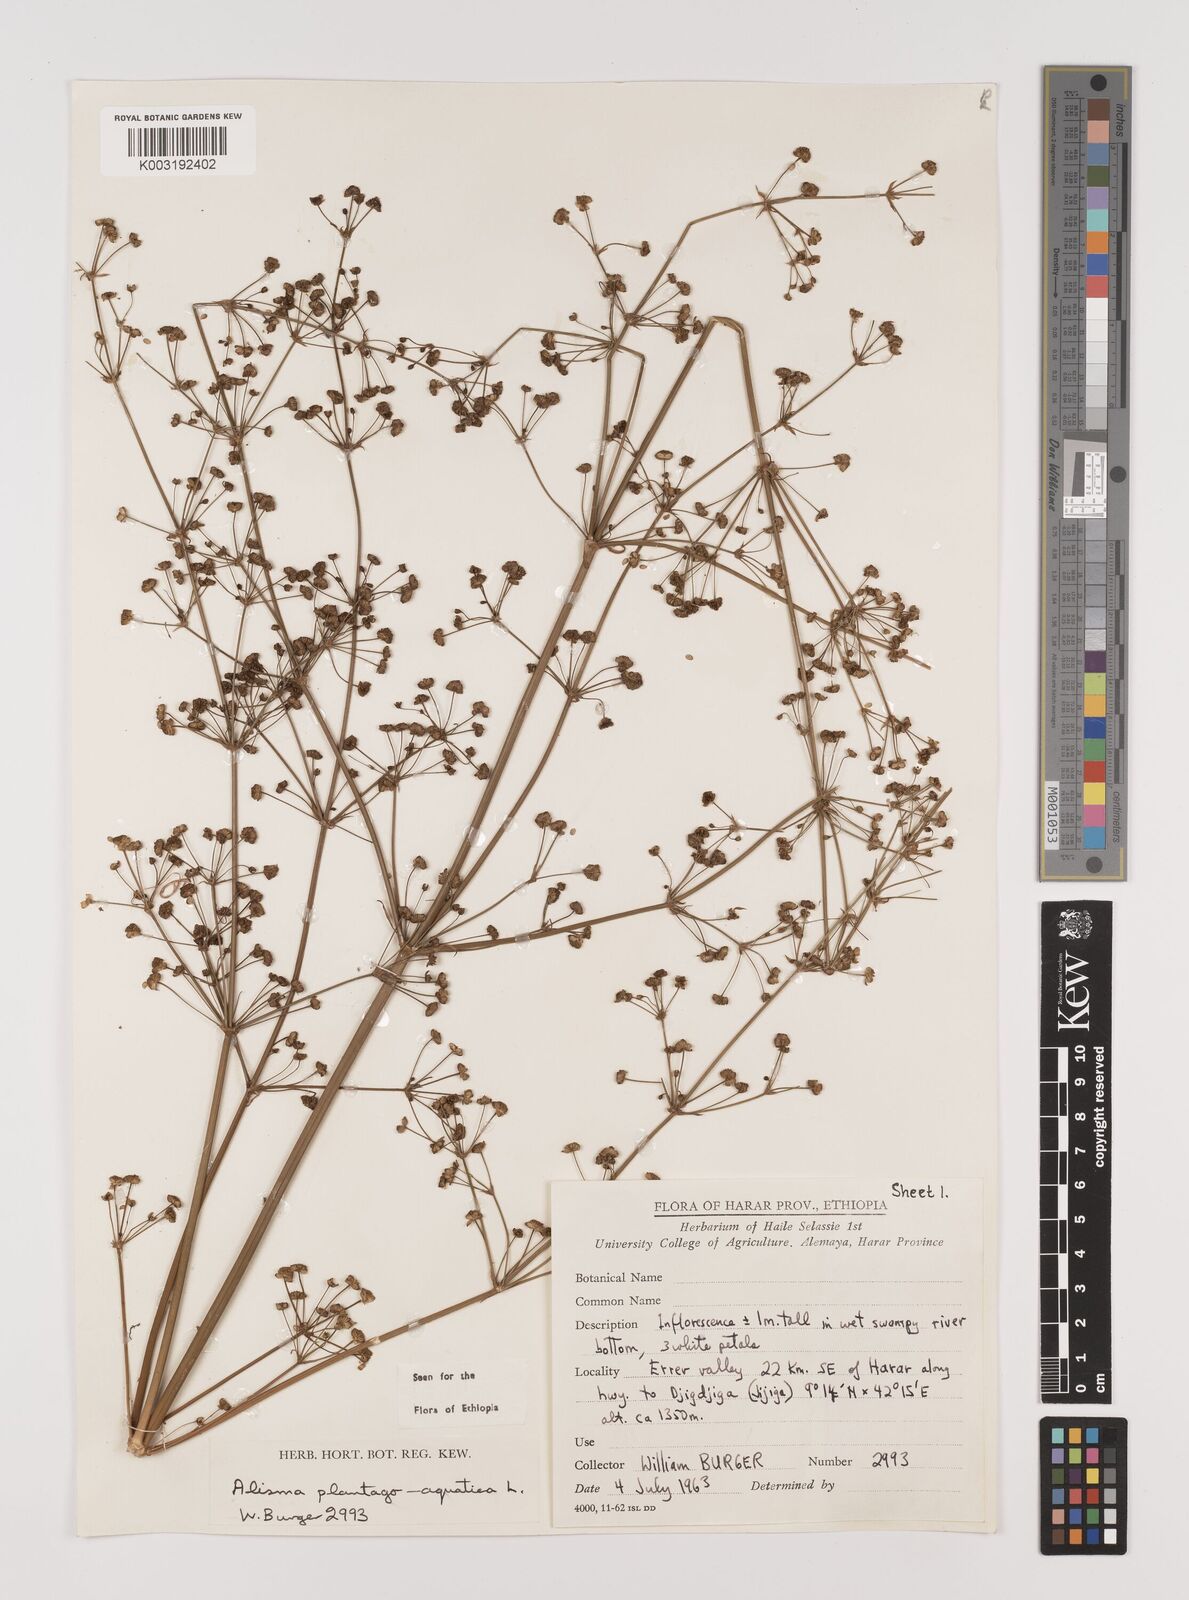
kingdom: Plantae
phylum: Tracheophyta
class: Liliopsida
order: Alismatales
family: Alismataceae
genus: Alisma
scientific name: Alisma plantago-aquatica
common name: Water-plantain
